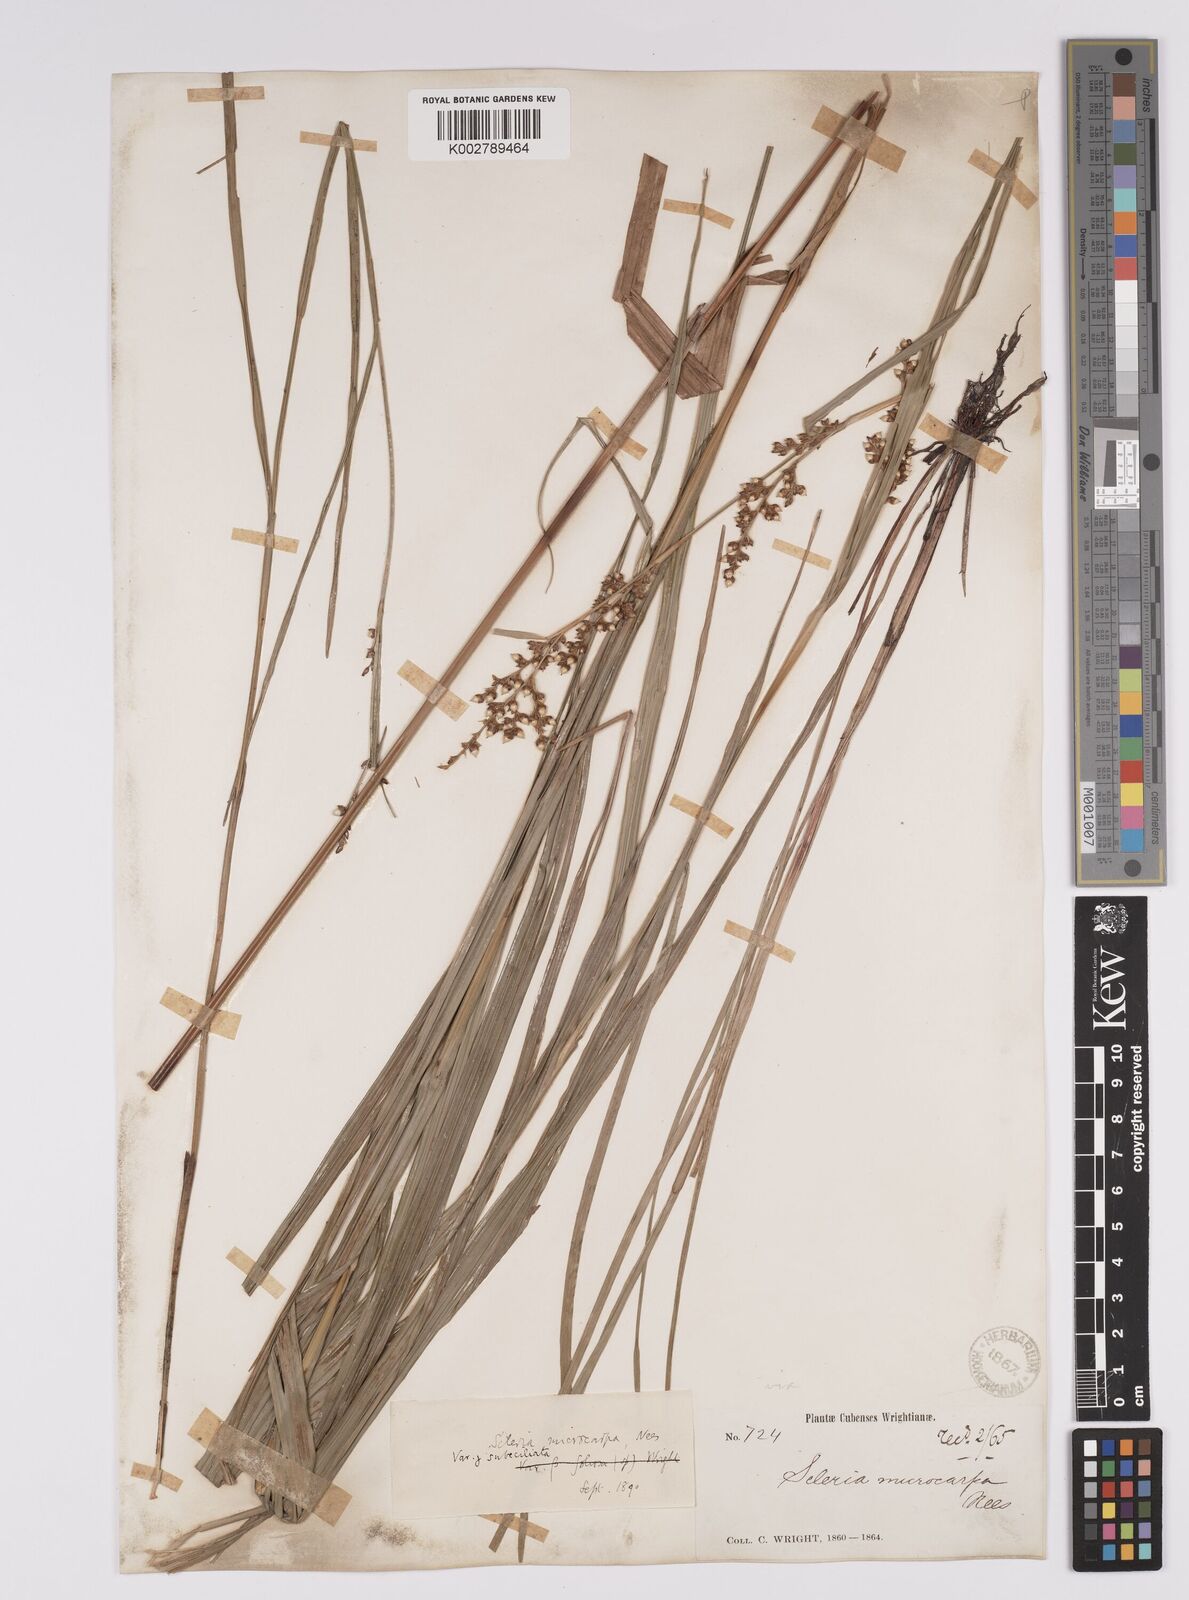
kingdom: Plantae
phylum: Tracheophyta
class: Liliopsida
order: Poales
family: Cyperaceae
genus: Scleria
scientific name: Scleria mucronata
